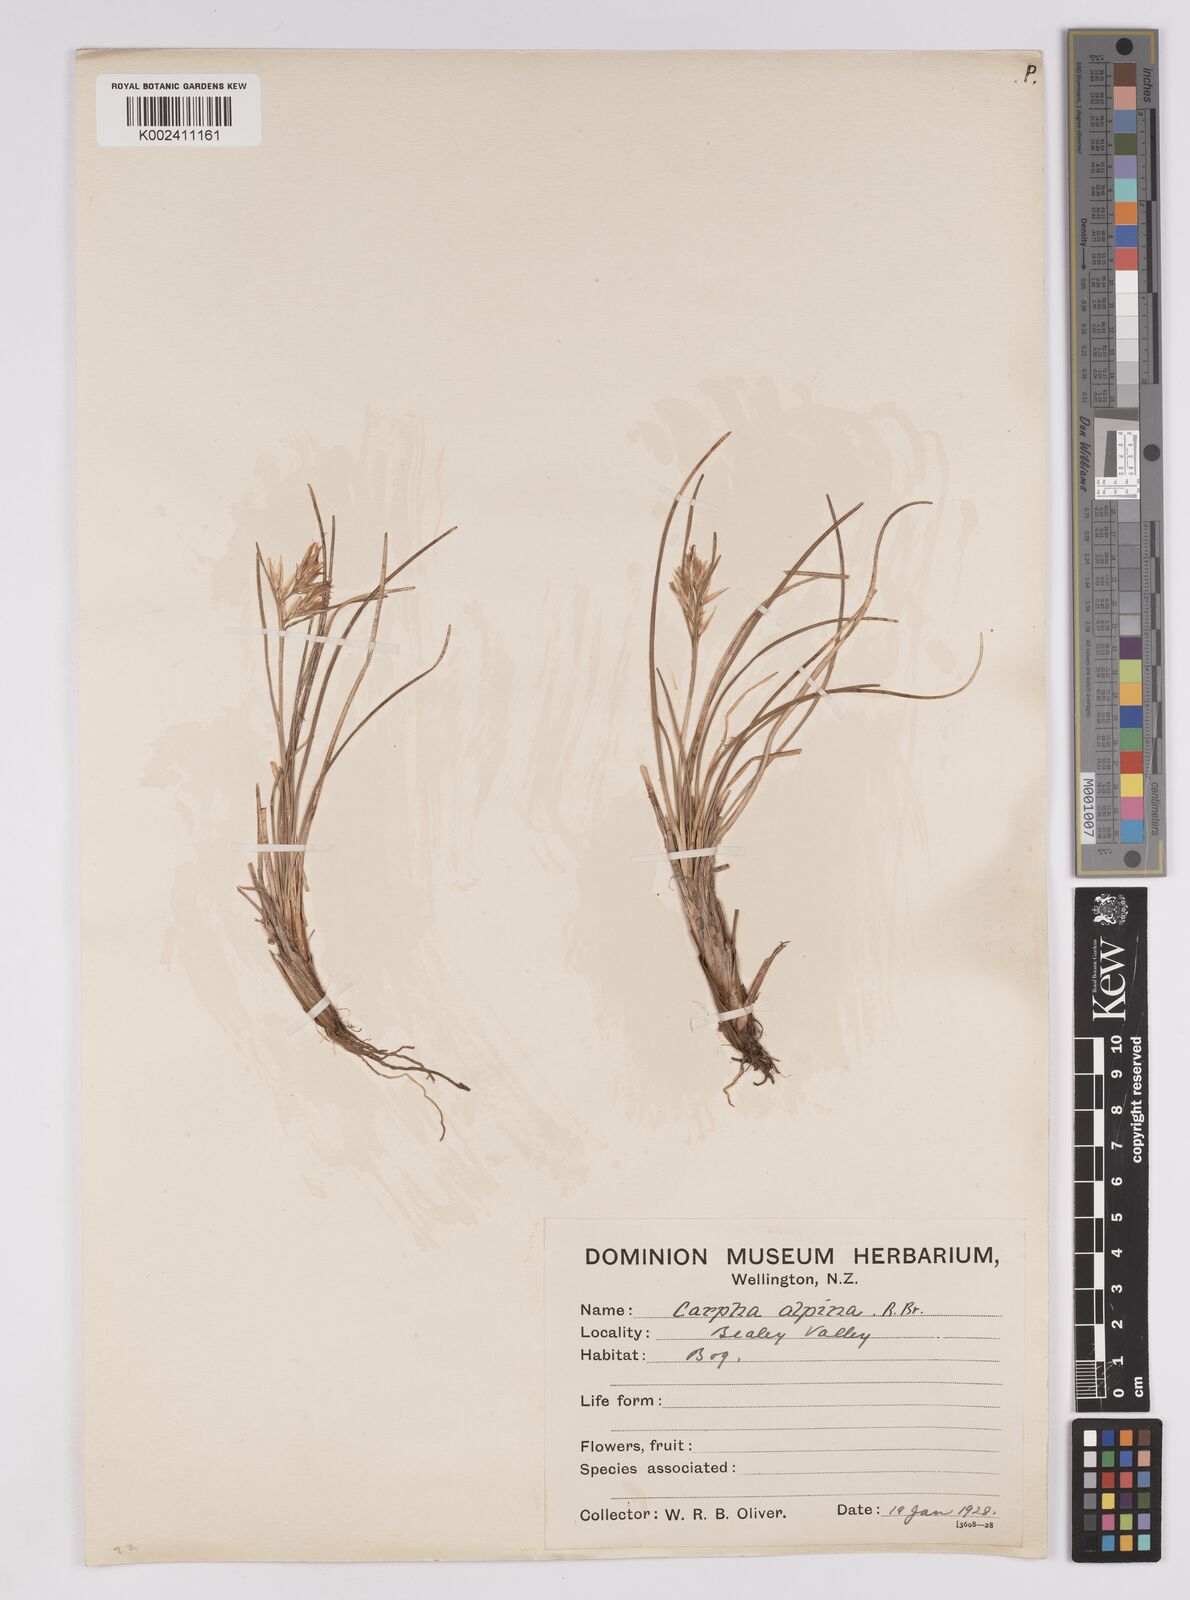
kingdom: Plantae
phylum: Tracheophyta
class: Liliopsida
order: Poales
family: Cyperaceae
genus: Carpha
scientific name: Carpha alpina
